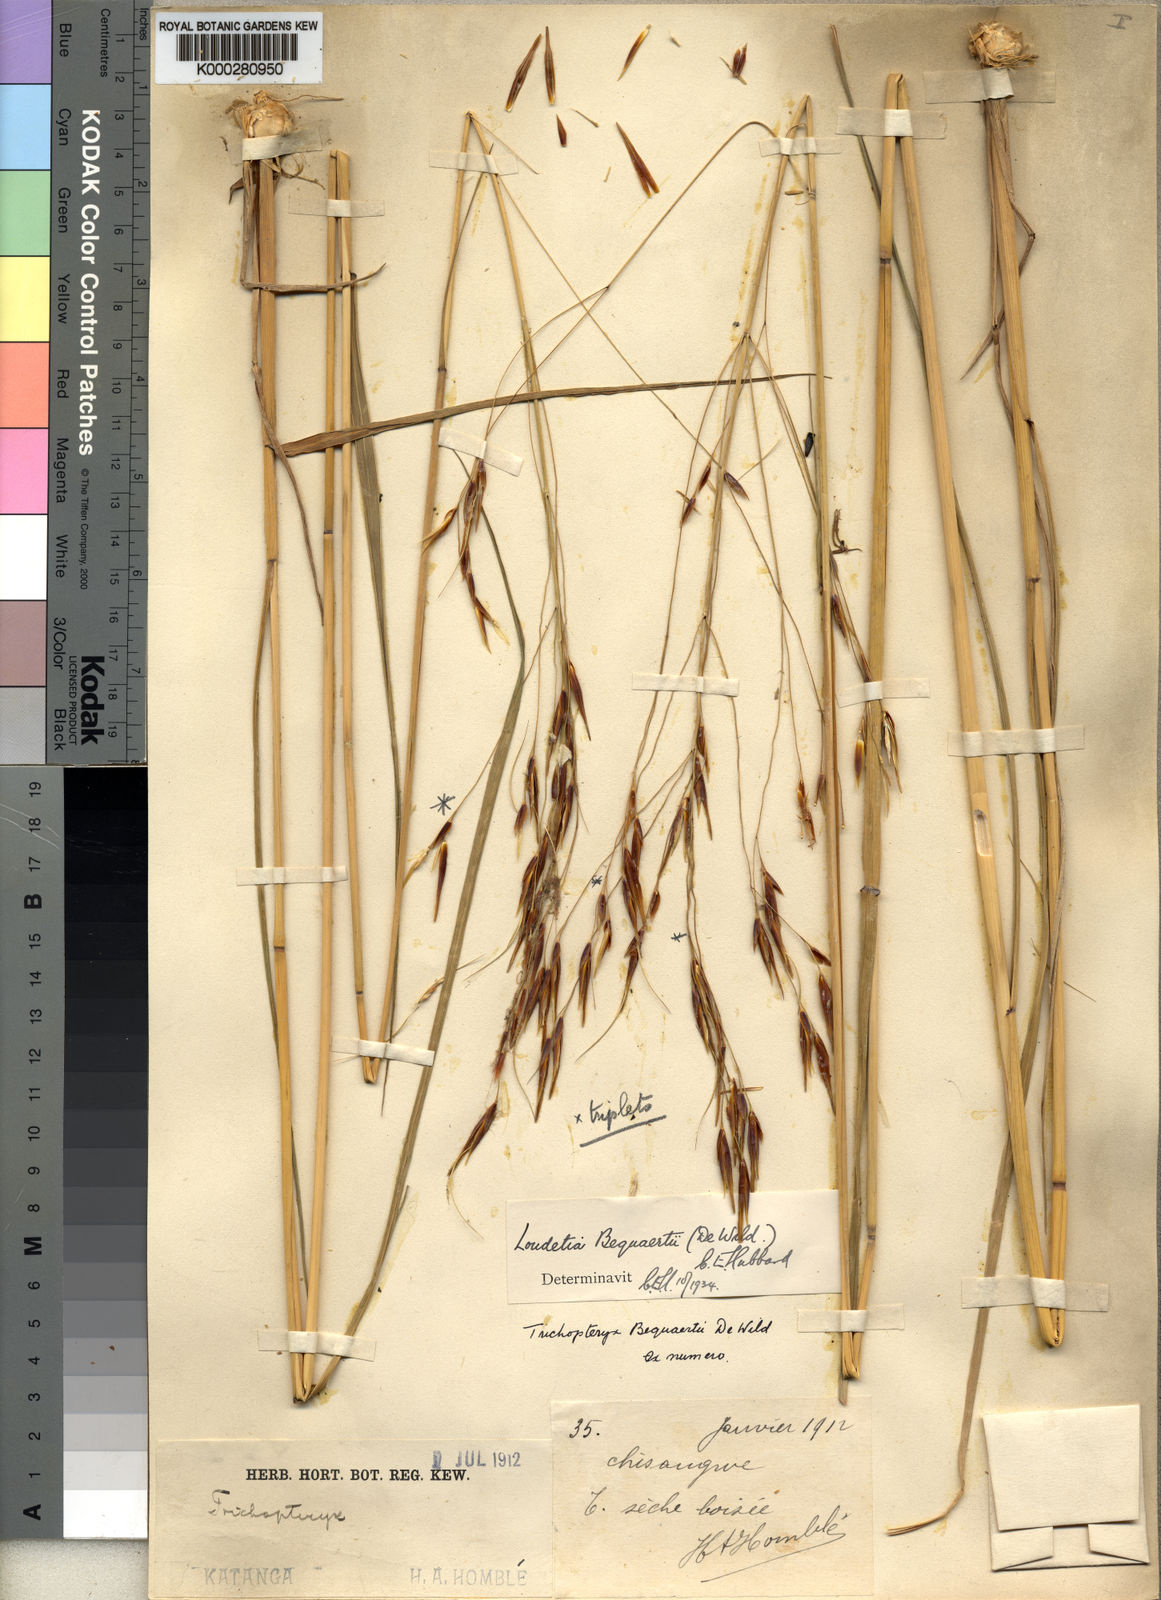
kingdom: Plantae
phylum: Tracheophyta
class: Liliopsida
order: Poales
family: Poaceae
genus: Tristachya
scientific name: Tristachya hubbardiana
